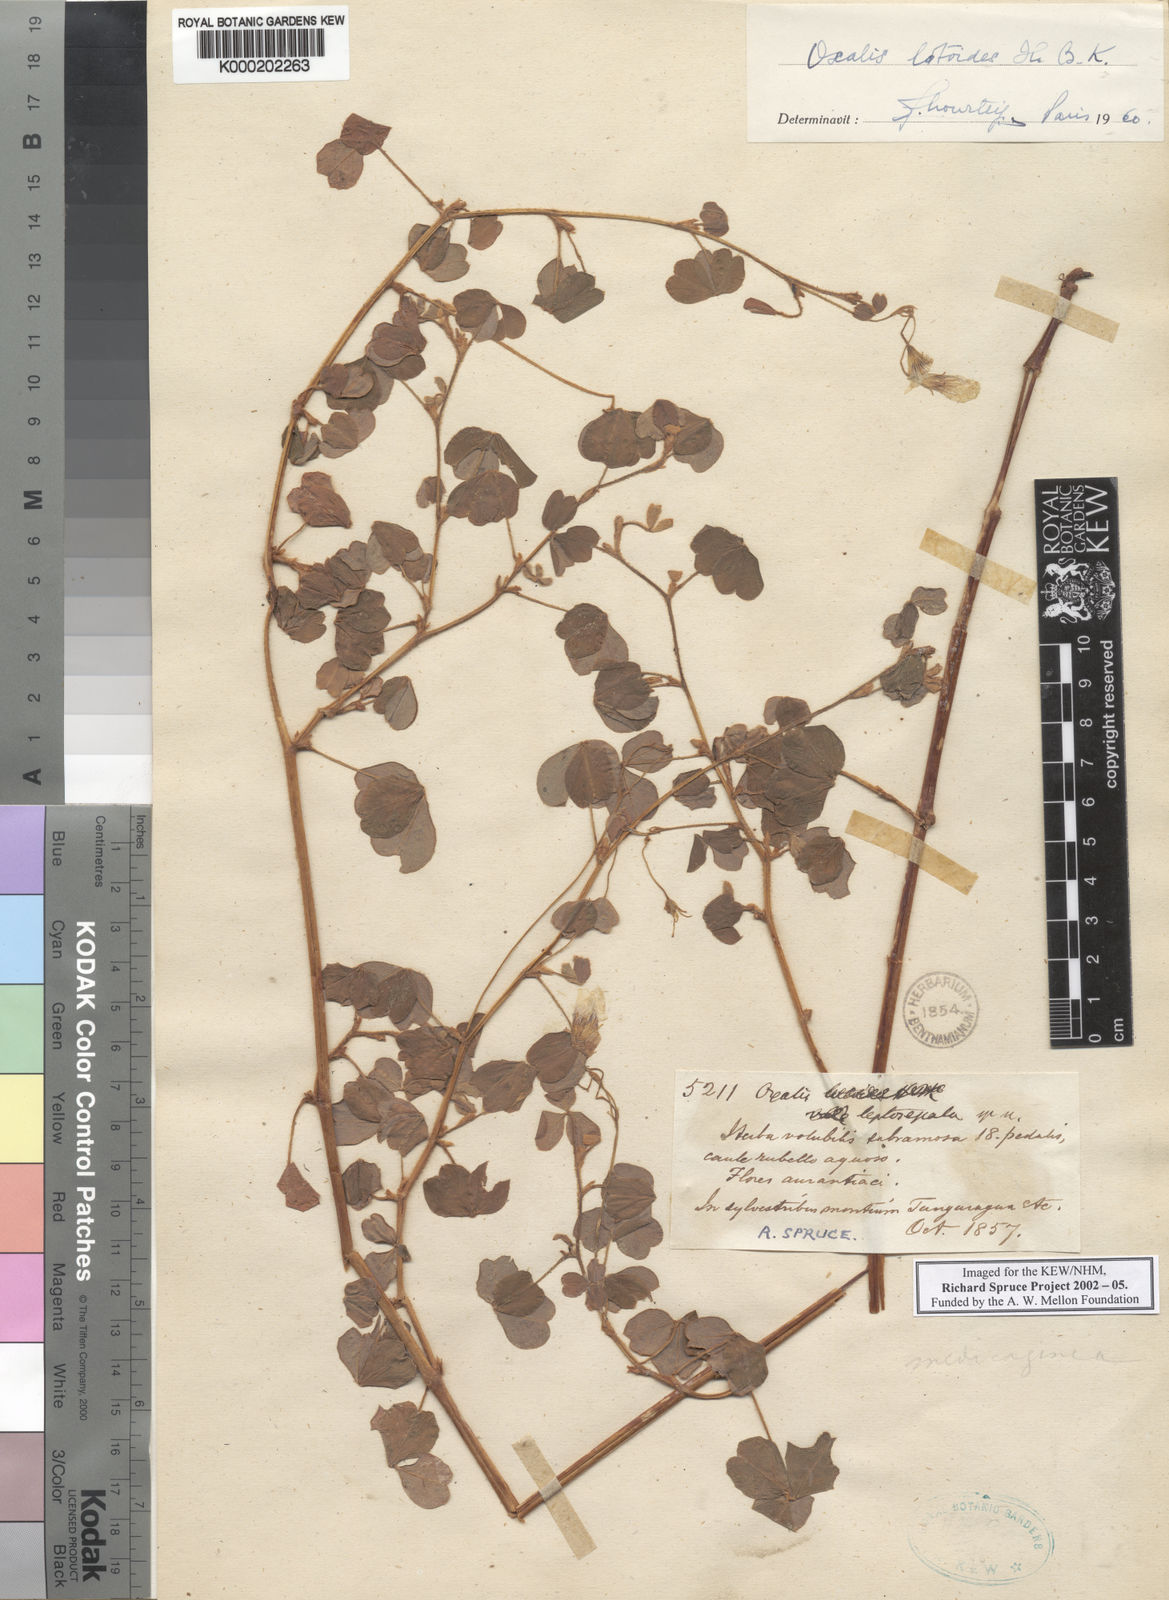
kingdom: Plantae
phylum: Tracheophyta
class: Magnoliopsida
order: Oxalidales
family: Oxalidaceae
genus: Oxalis
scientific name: Oxalis lotoides
